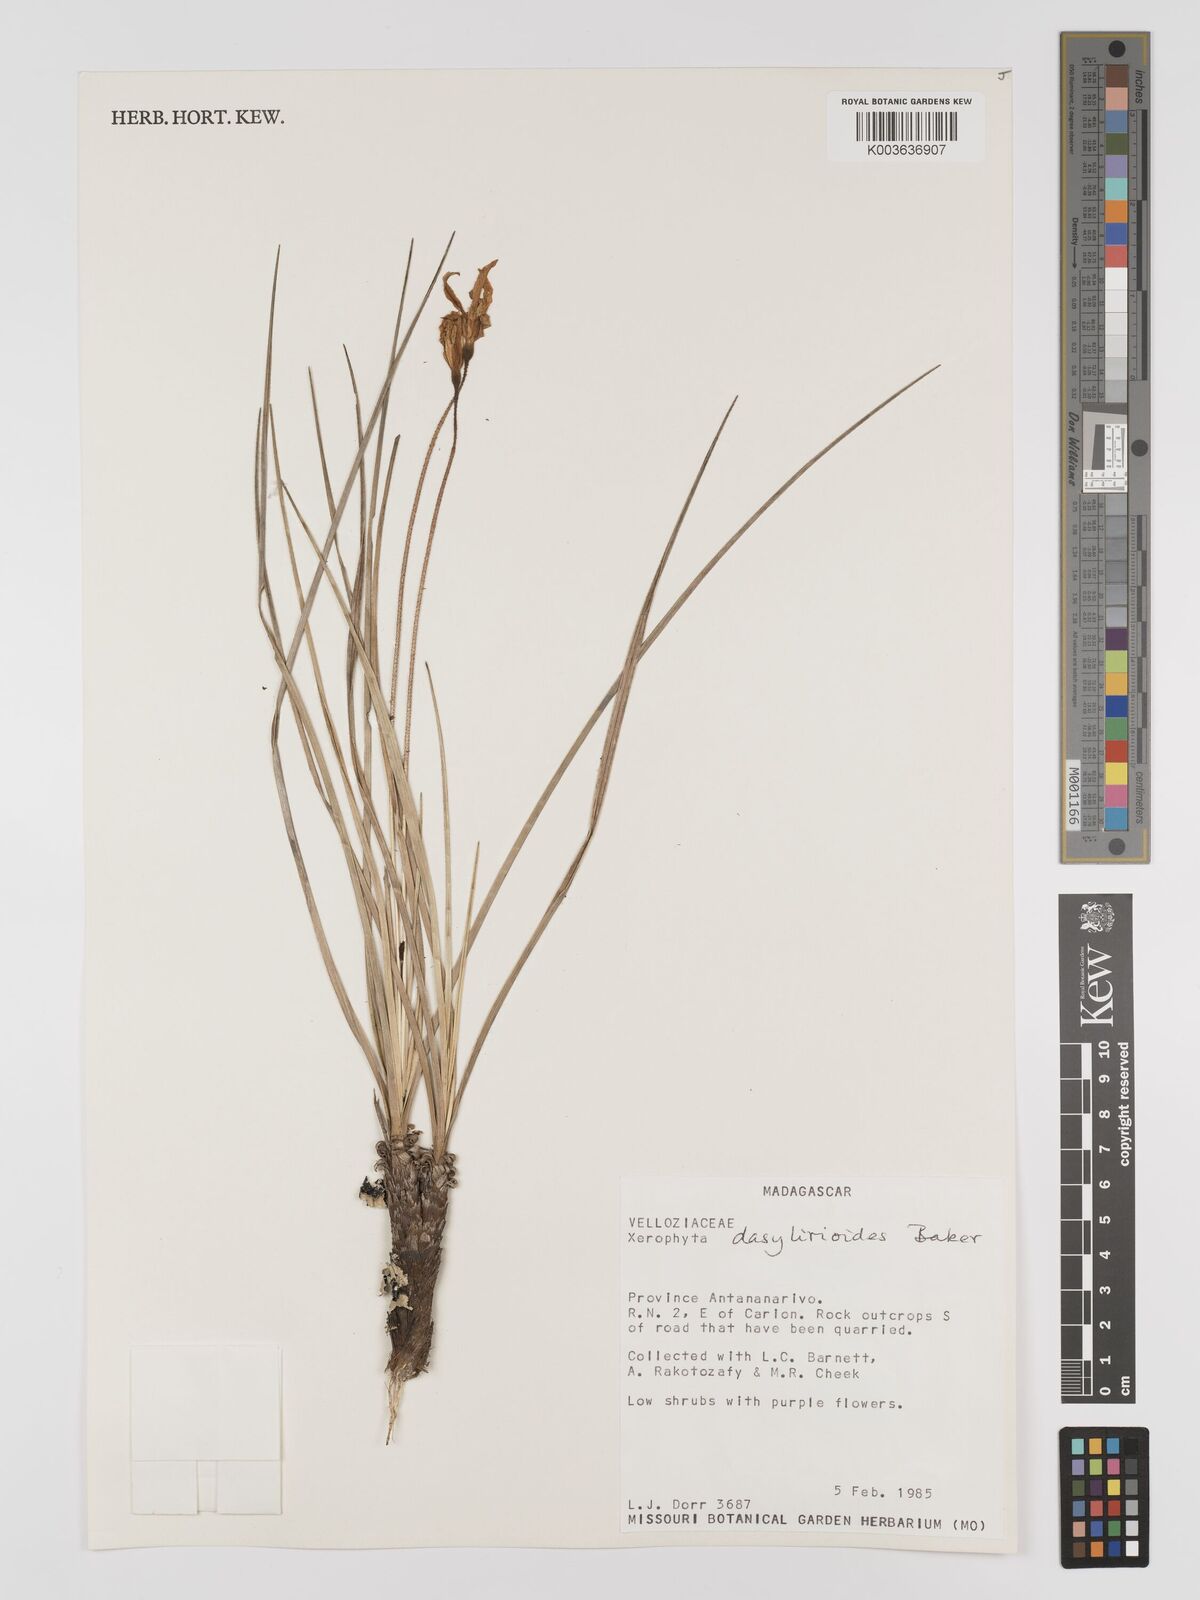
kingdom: Plantae
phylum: Tracheophyta
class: Liliopsida
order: Pandanales
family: Velloziaceae
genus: Xerophyta
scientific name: Xerophyta dasylirioides
